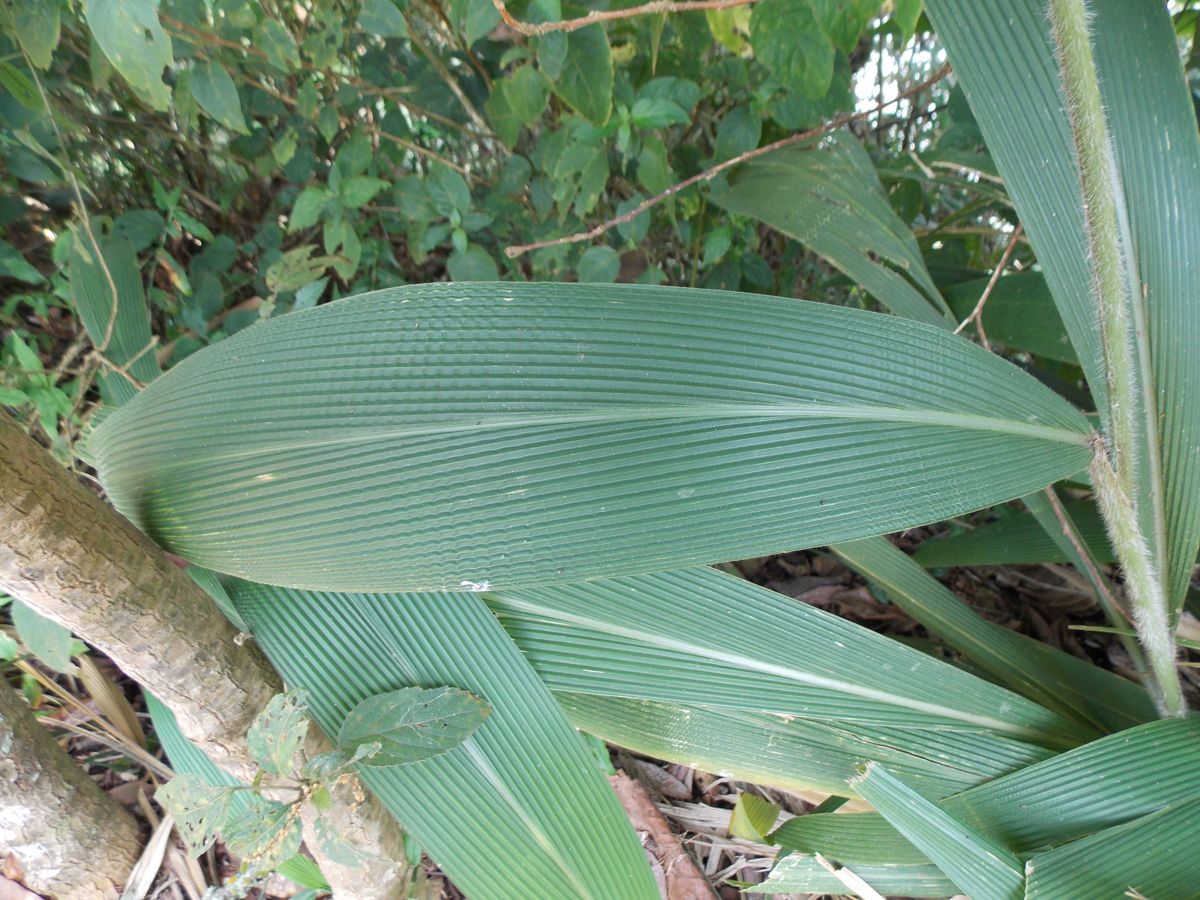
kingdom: Plantae
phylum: Tracheophyta
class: Liliopsida
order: Poales
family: Poaceae
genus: Setaria
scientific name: Setaria palmifolia
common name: Broadleaved bristlegrass
